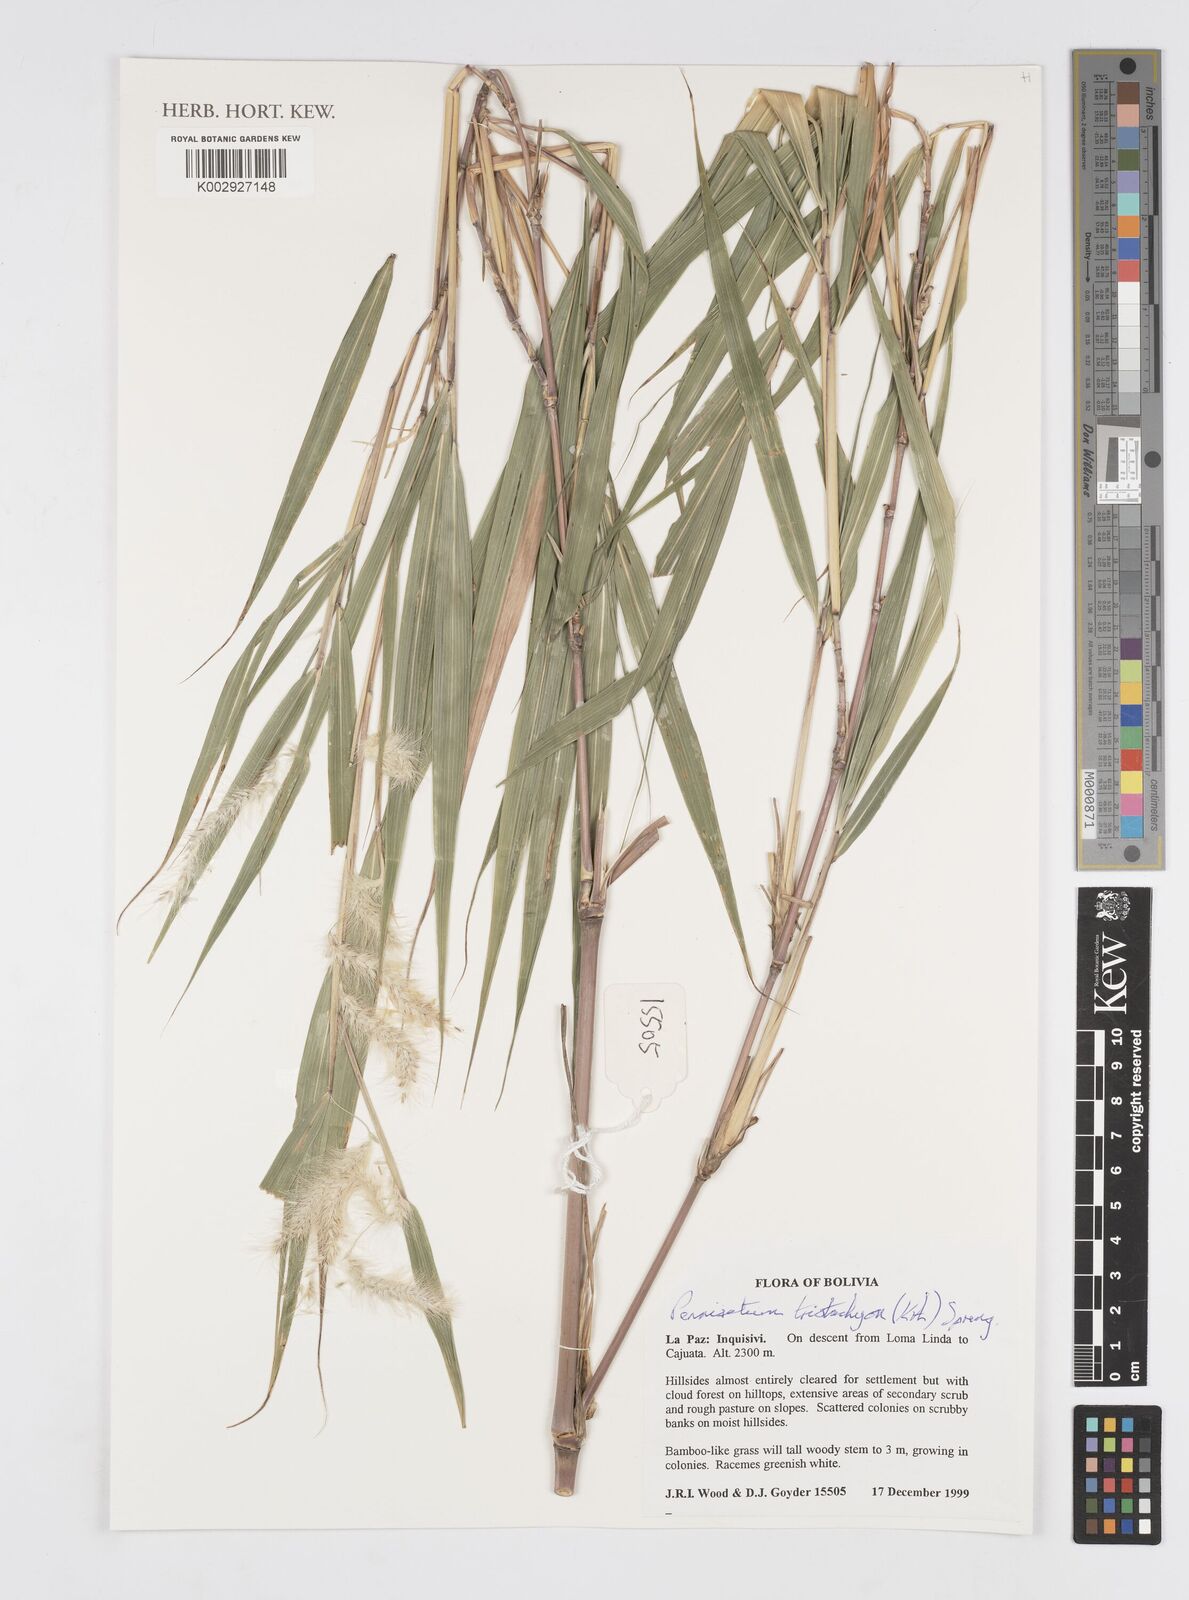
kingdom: Plantae
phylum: Tracheophyta
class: Liliopsida
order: Poales
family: Poaceae
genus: Cenchrus
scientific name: Cenchrus tristachyus
